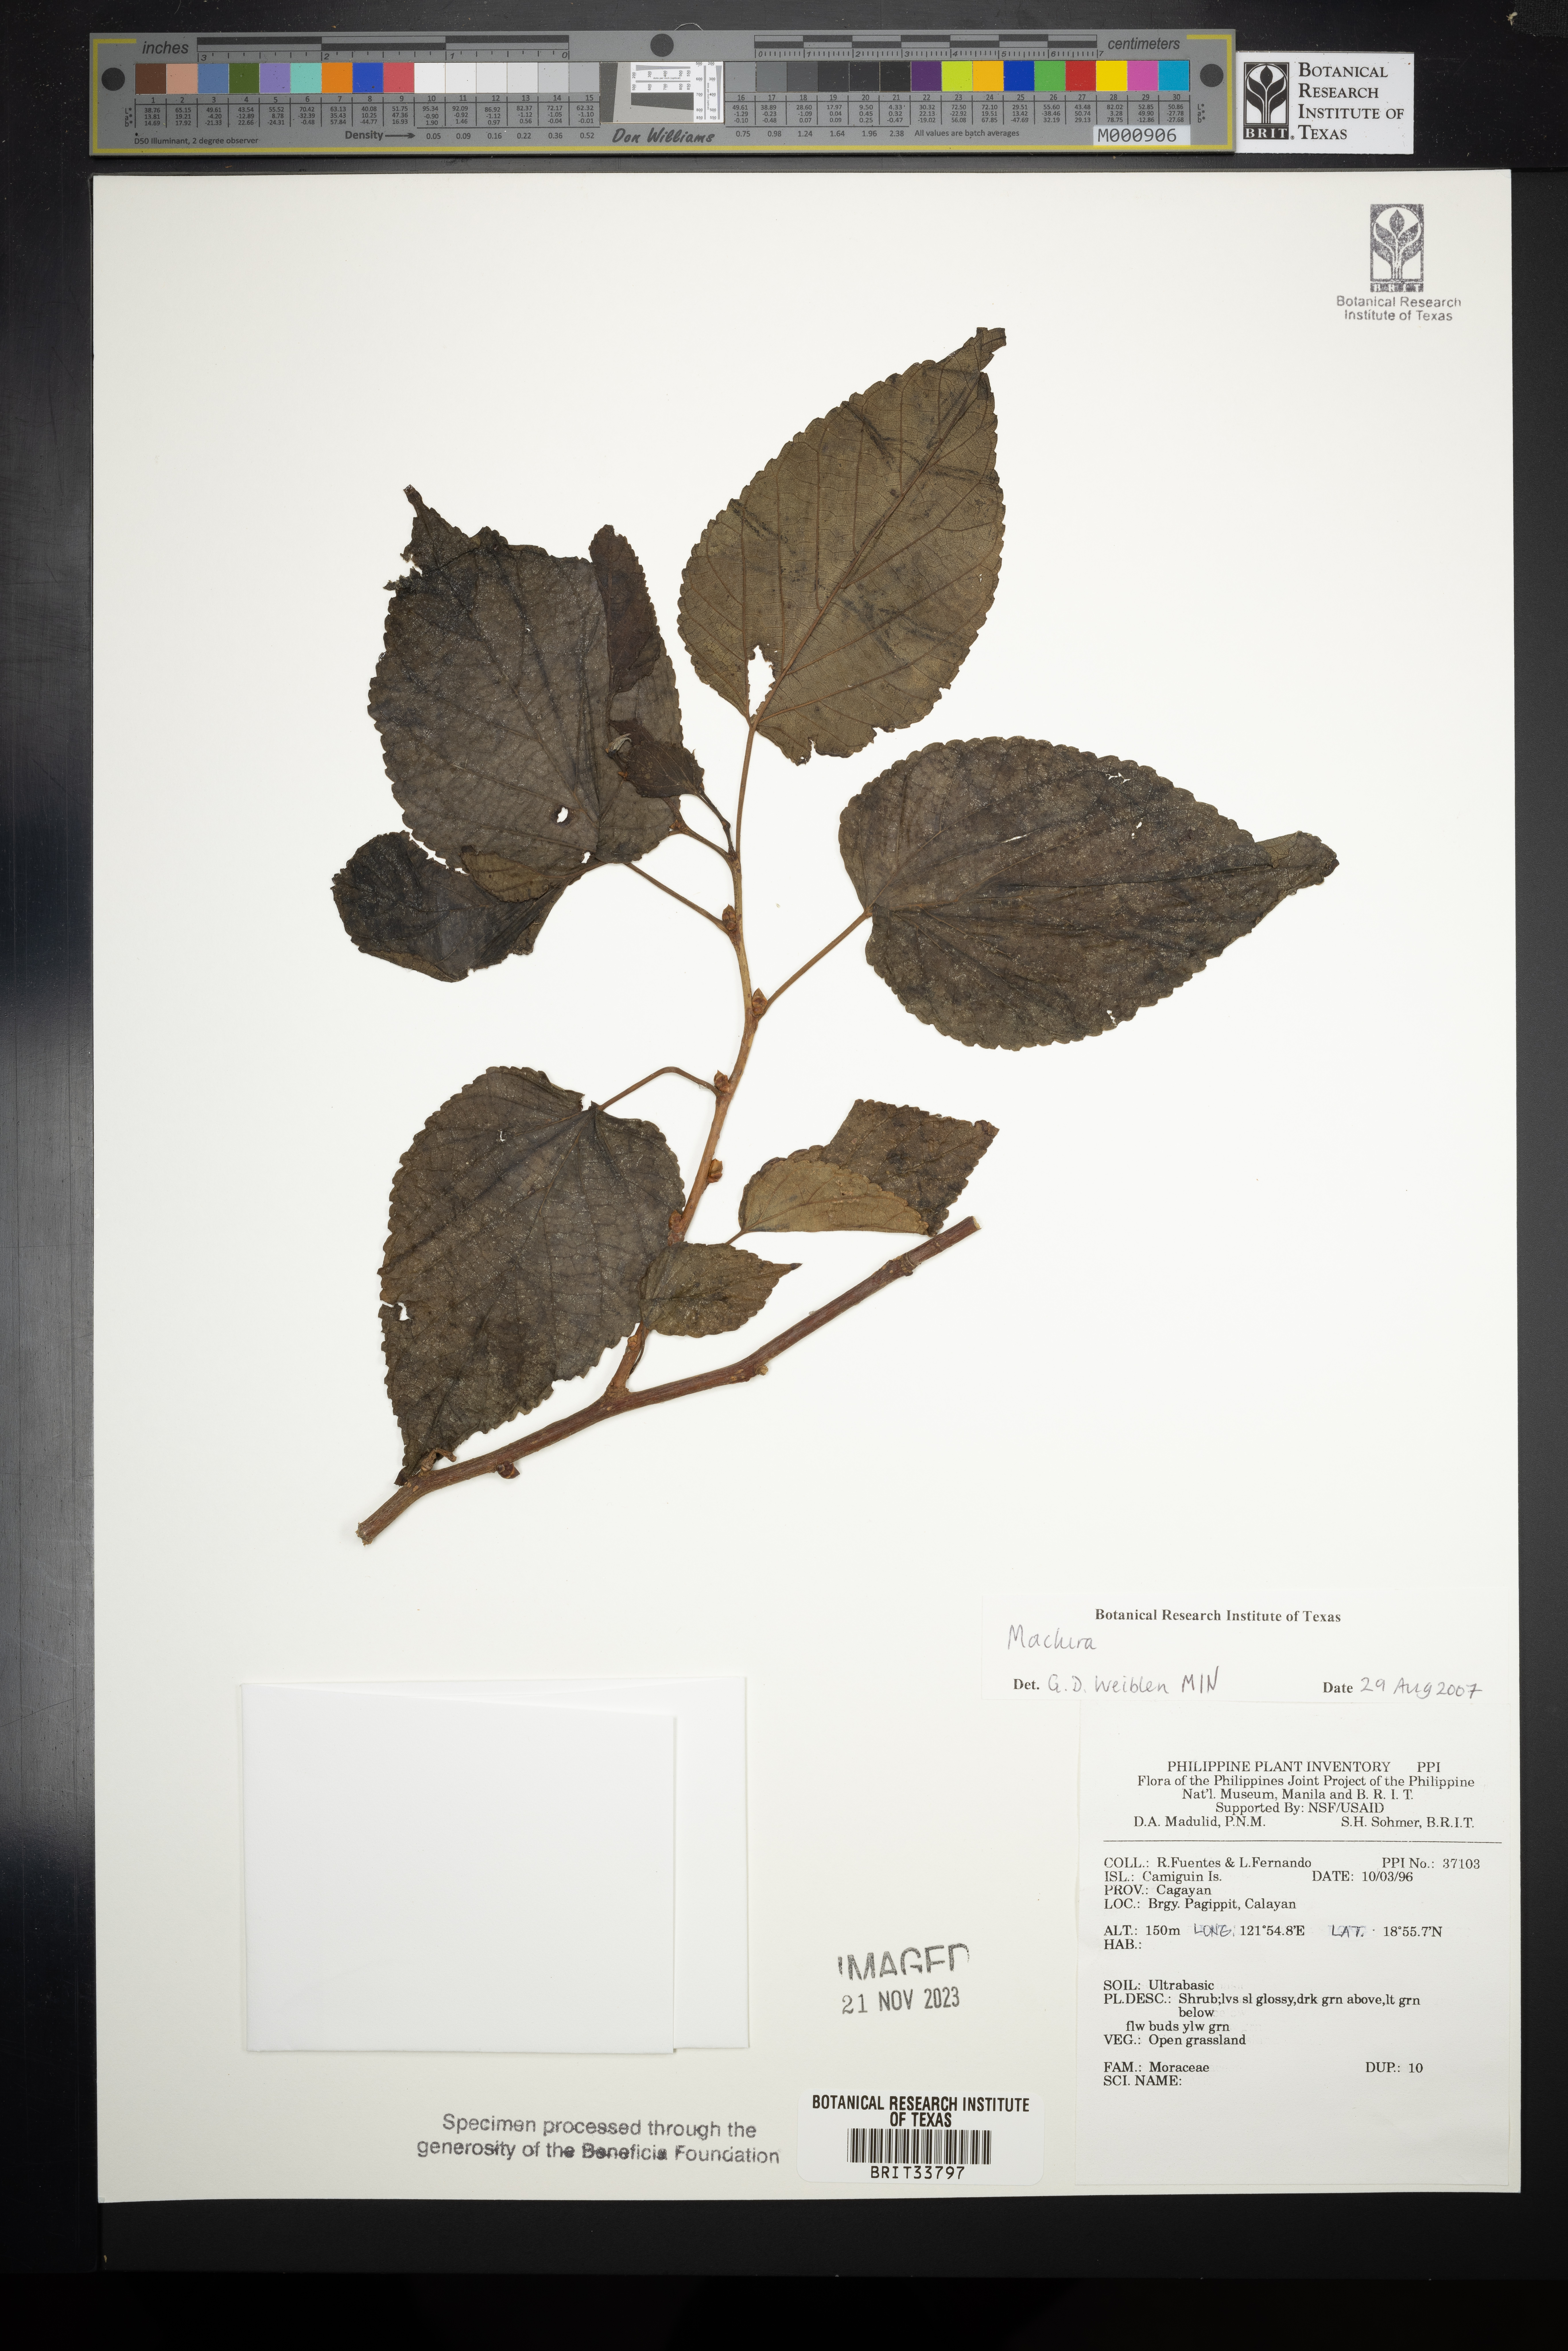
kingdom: Plantae
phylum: Tracheophyta
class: Magnoliopsida
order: Rosales
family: Moraceae
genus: Maclura
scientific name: Maclura
